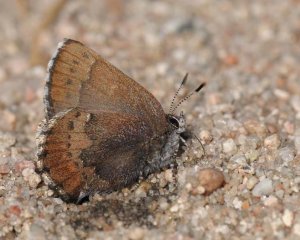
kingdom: Animalia
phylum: Arthropoda
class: Insecta
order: Lepidoptera
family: Lycaenidae
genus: Incisalia
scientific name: Incisalia irioides
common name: Brown Elfin
